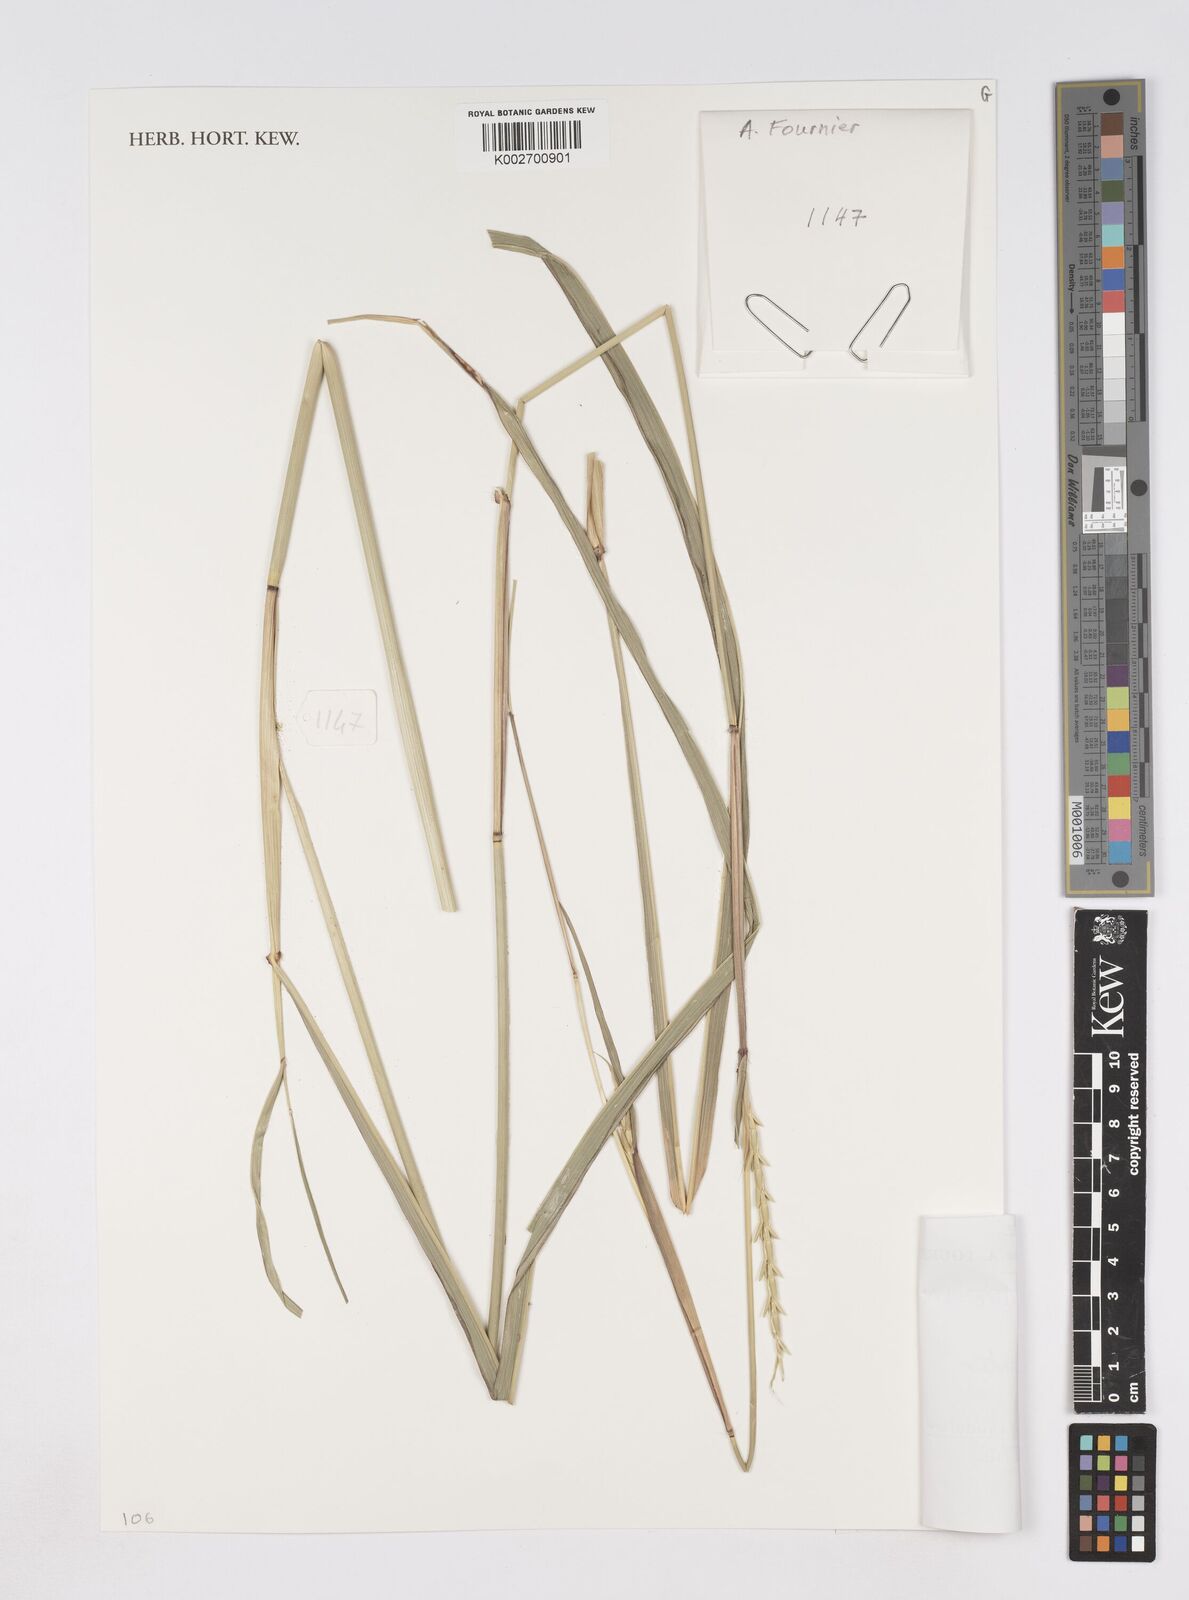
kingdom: Plantae
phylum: Tracheophyta
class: Liliopsida
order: Poales
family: Poaceae
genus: Chasmopodium
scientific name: Chasmopodium caudatum
